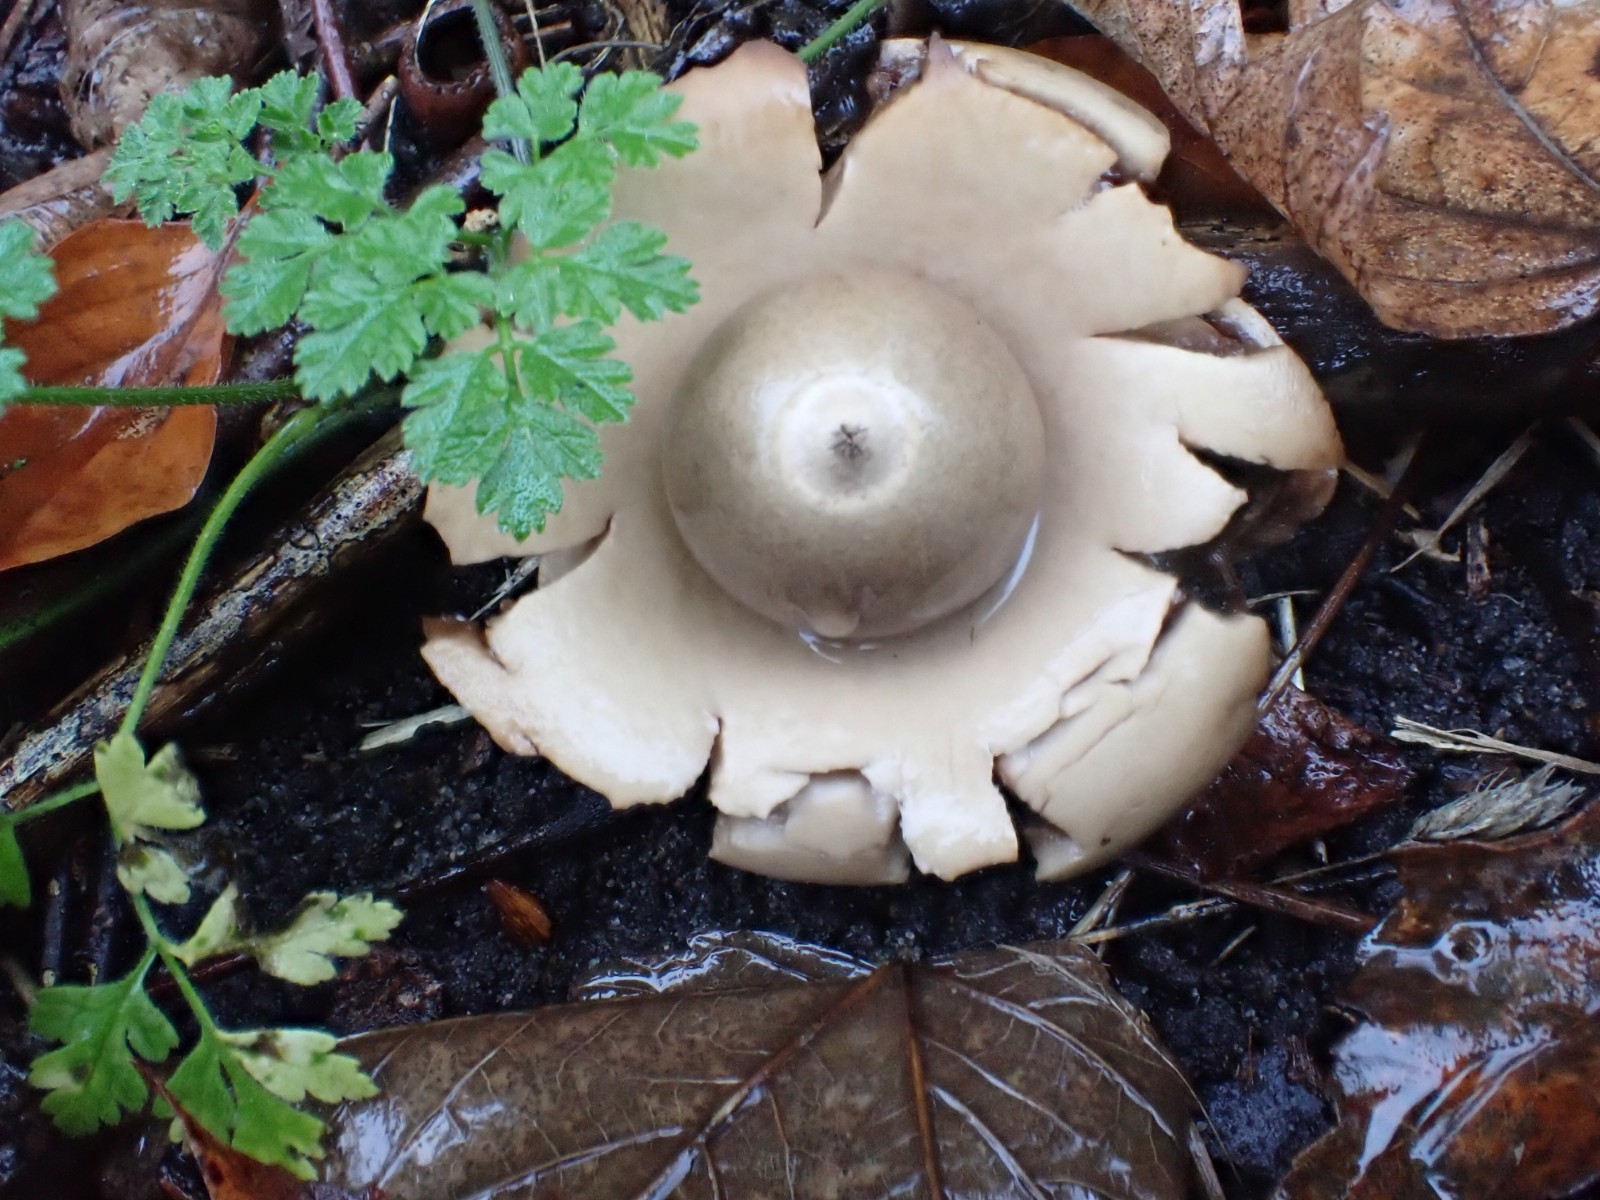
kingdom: Fungi
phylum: Basidiomycota
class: Agaricomycetes
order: Geastrales
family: Geastraceae
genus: Geastrum
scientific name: Geastrum michelianum
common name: kødet stjernebold
